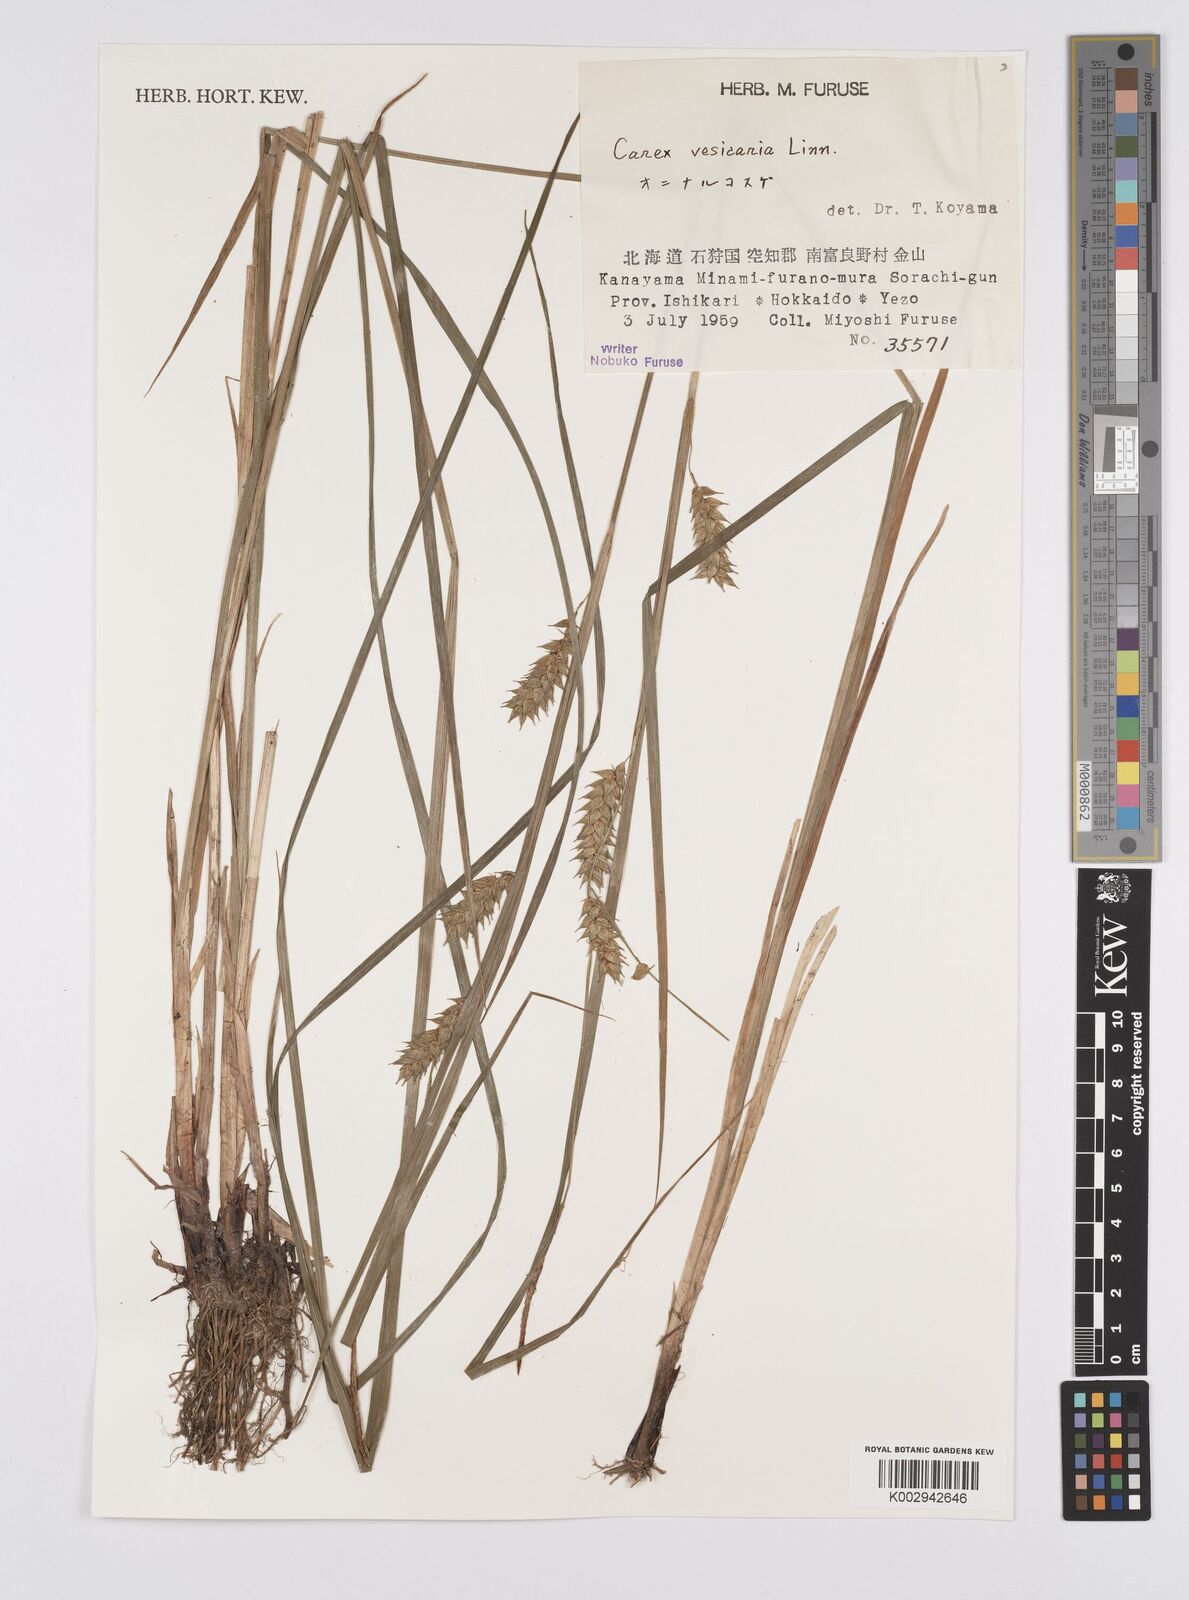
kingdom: Plantae
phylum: Tracheophyta
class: Liliopsida
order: Poales
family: Cyperaceae
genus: Carex
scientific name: Carex vesicaria
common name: Bladder-sedge
